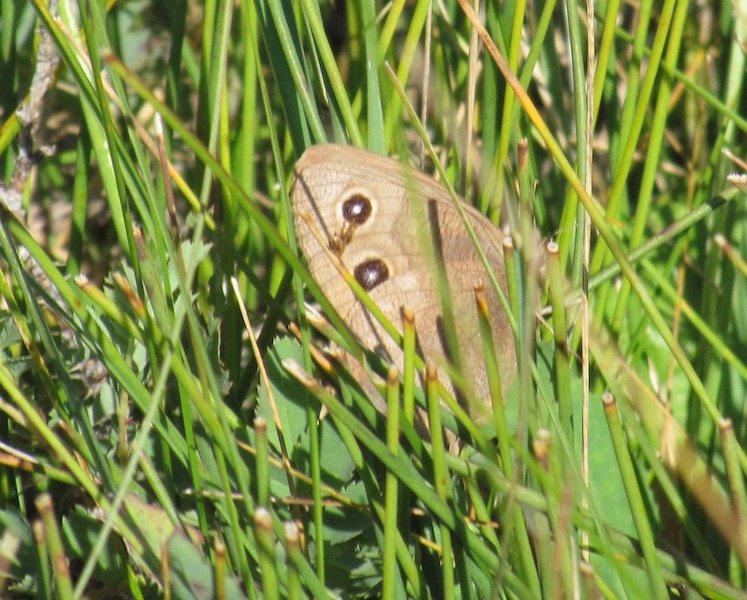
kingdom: Animalia
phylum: Arthropoda
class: Insecta
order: Lepidoptera
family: Nymphalidae
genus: Cercyonis
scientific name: Cercyonis pegala
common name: Common Wood-Nymph
